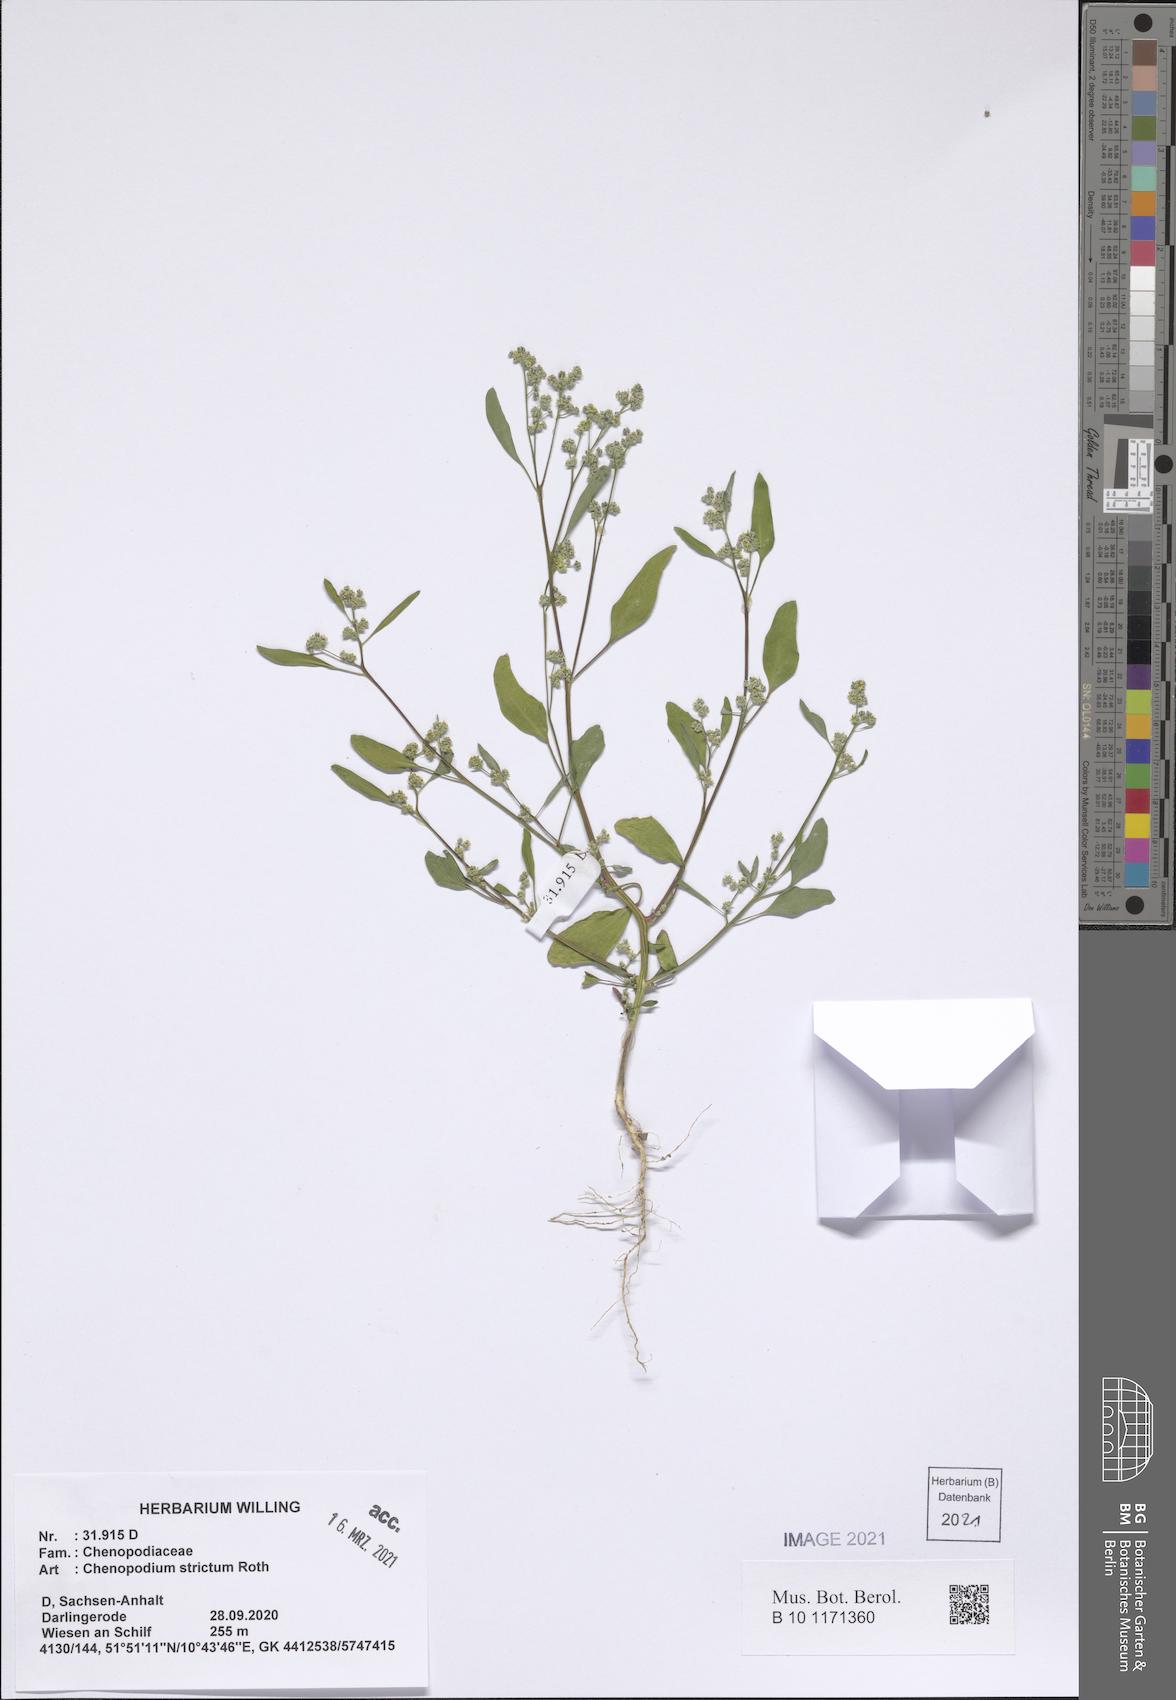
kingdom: Plantae
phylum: Tracheophyta
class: Magnoliopsida
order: Caryophyllales
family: Amaranthaceae
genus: Chenopodium
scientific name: Chenopodium album
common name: Fat-hen
